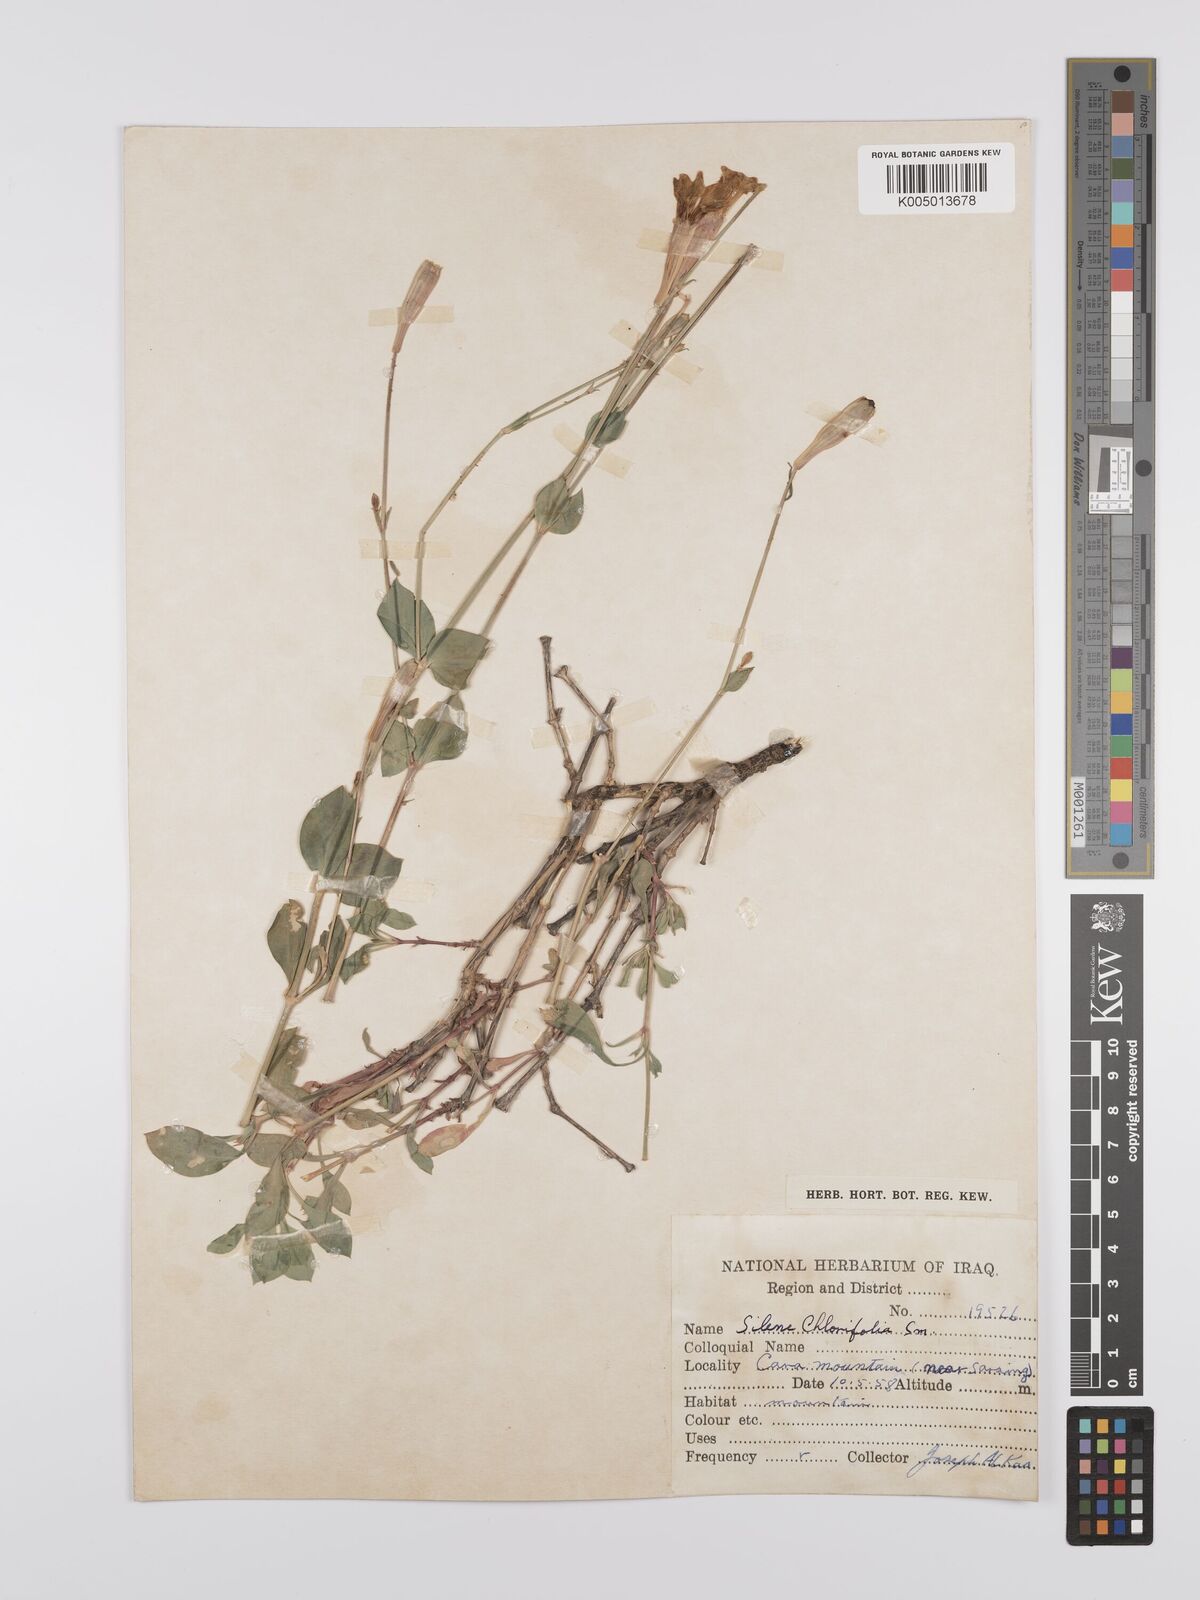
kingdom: Plantae
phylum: Tracheophyta
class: Magnoliopsida
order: Caryophyllales
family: Caryophyllaceae
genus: Silene
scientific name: Silene chlorifolia
